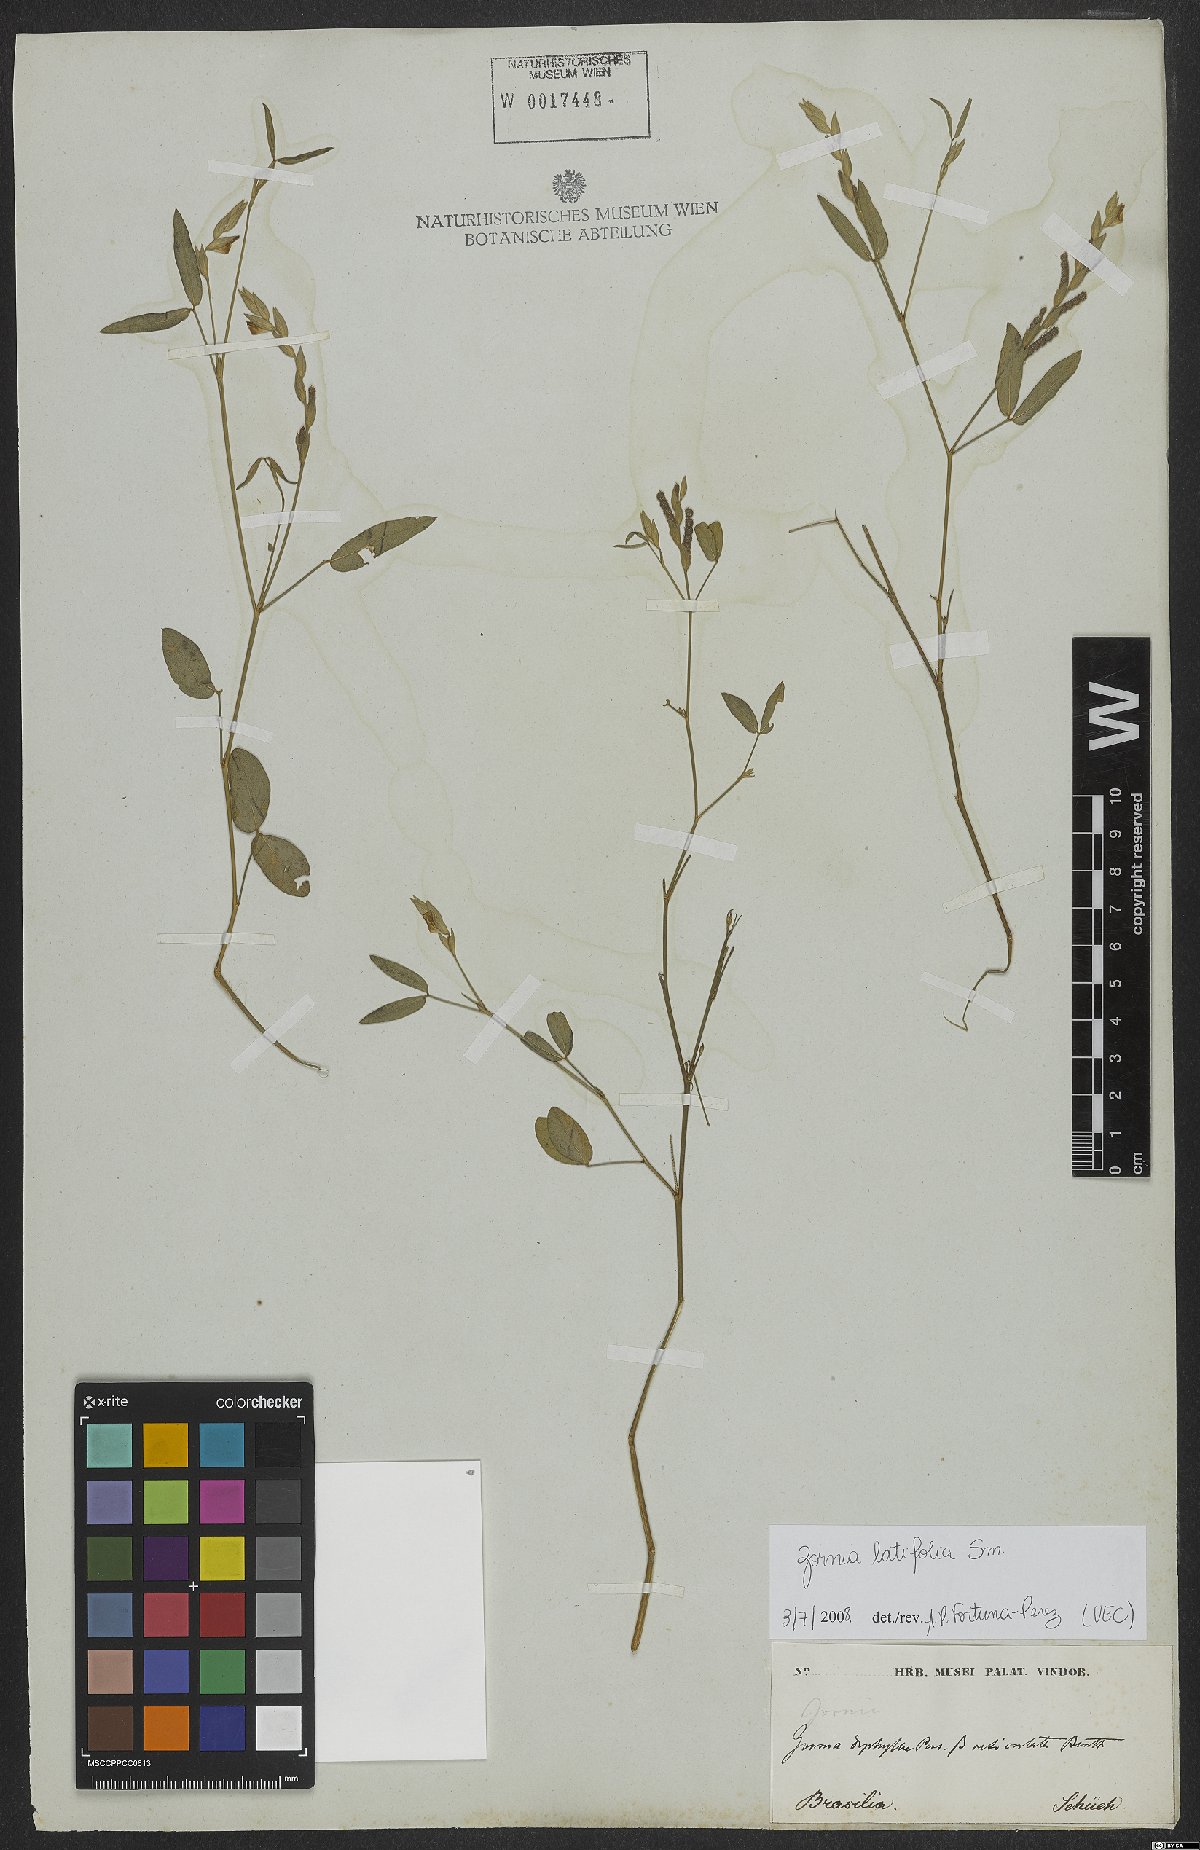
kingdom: Plantae
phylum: Tracheophyta
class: Magnoliopsida
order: Fabales
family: Fabaceae
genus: Zornia
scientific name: Zornia sericea
